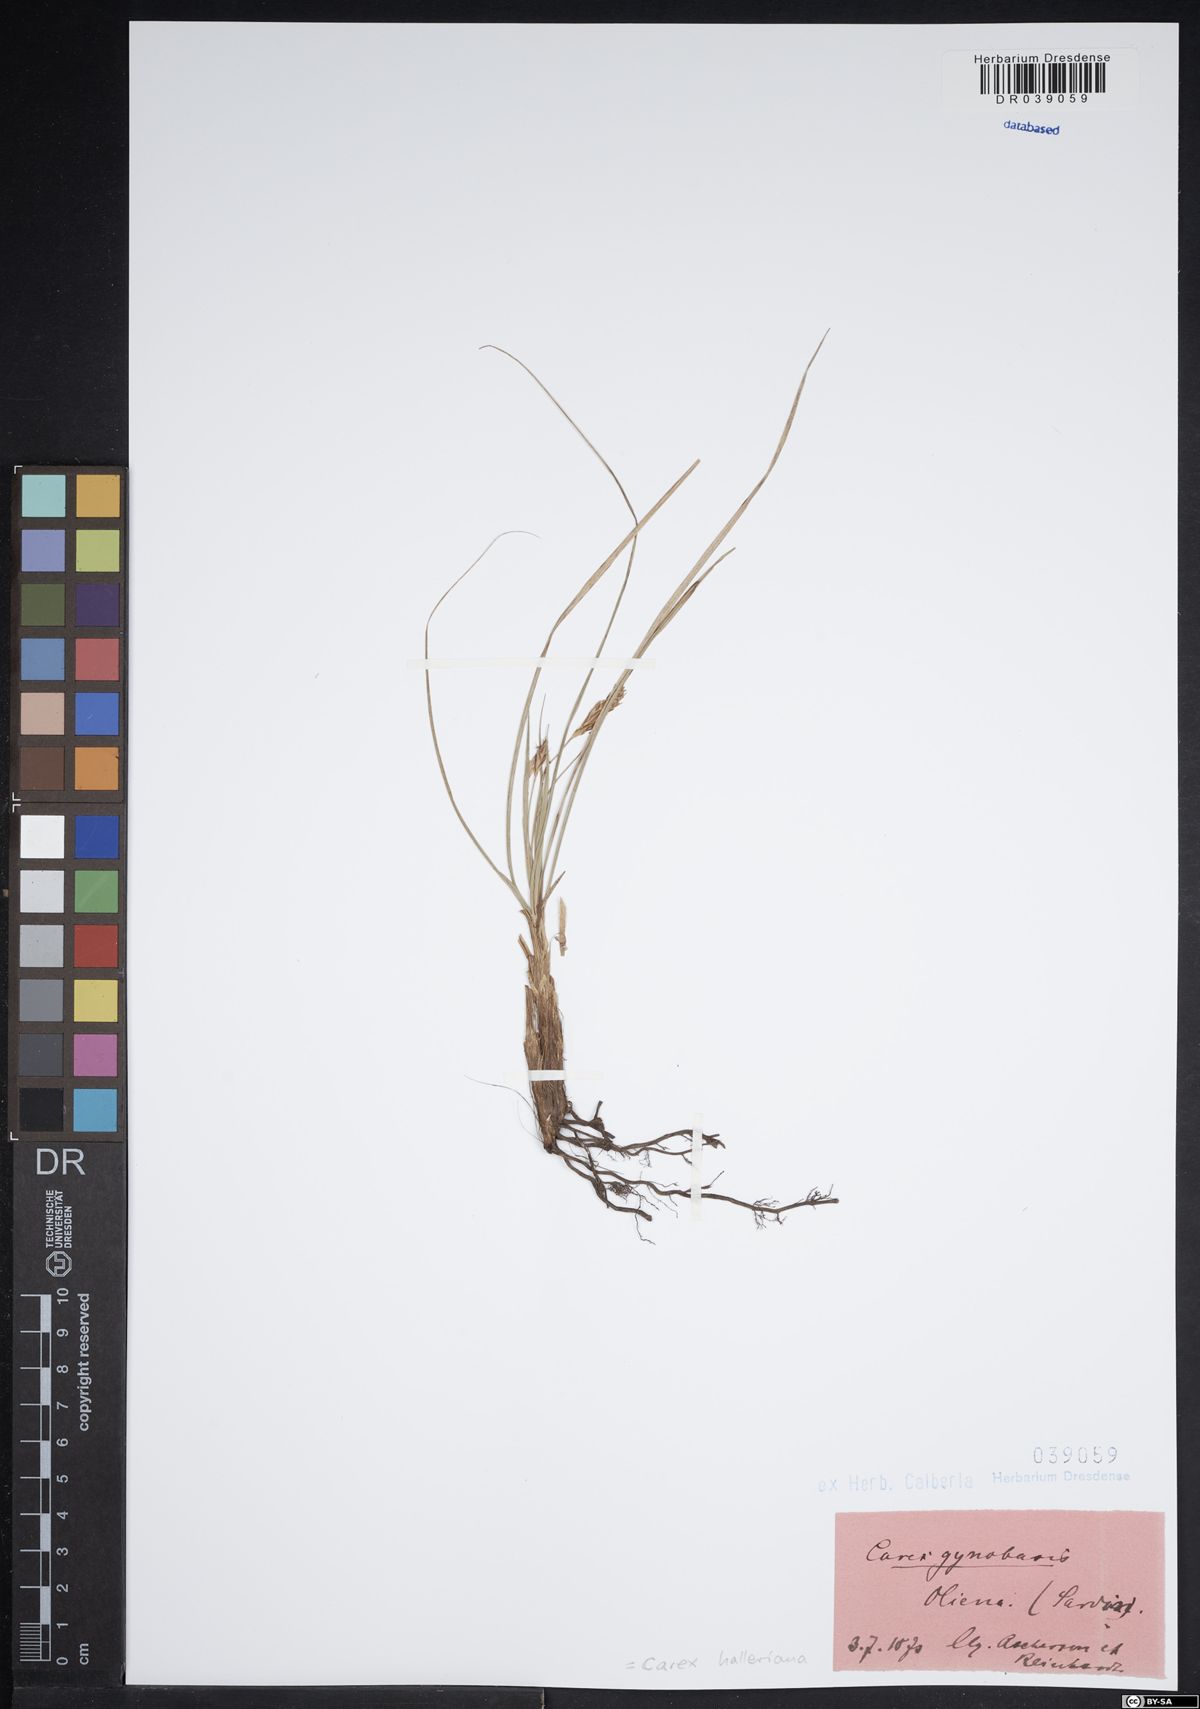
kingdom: Plantae
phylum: Tracheophyta
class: Liliopsida
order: Poales
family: Cyperaceae
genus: Carex
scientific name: Carex halleriana
